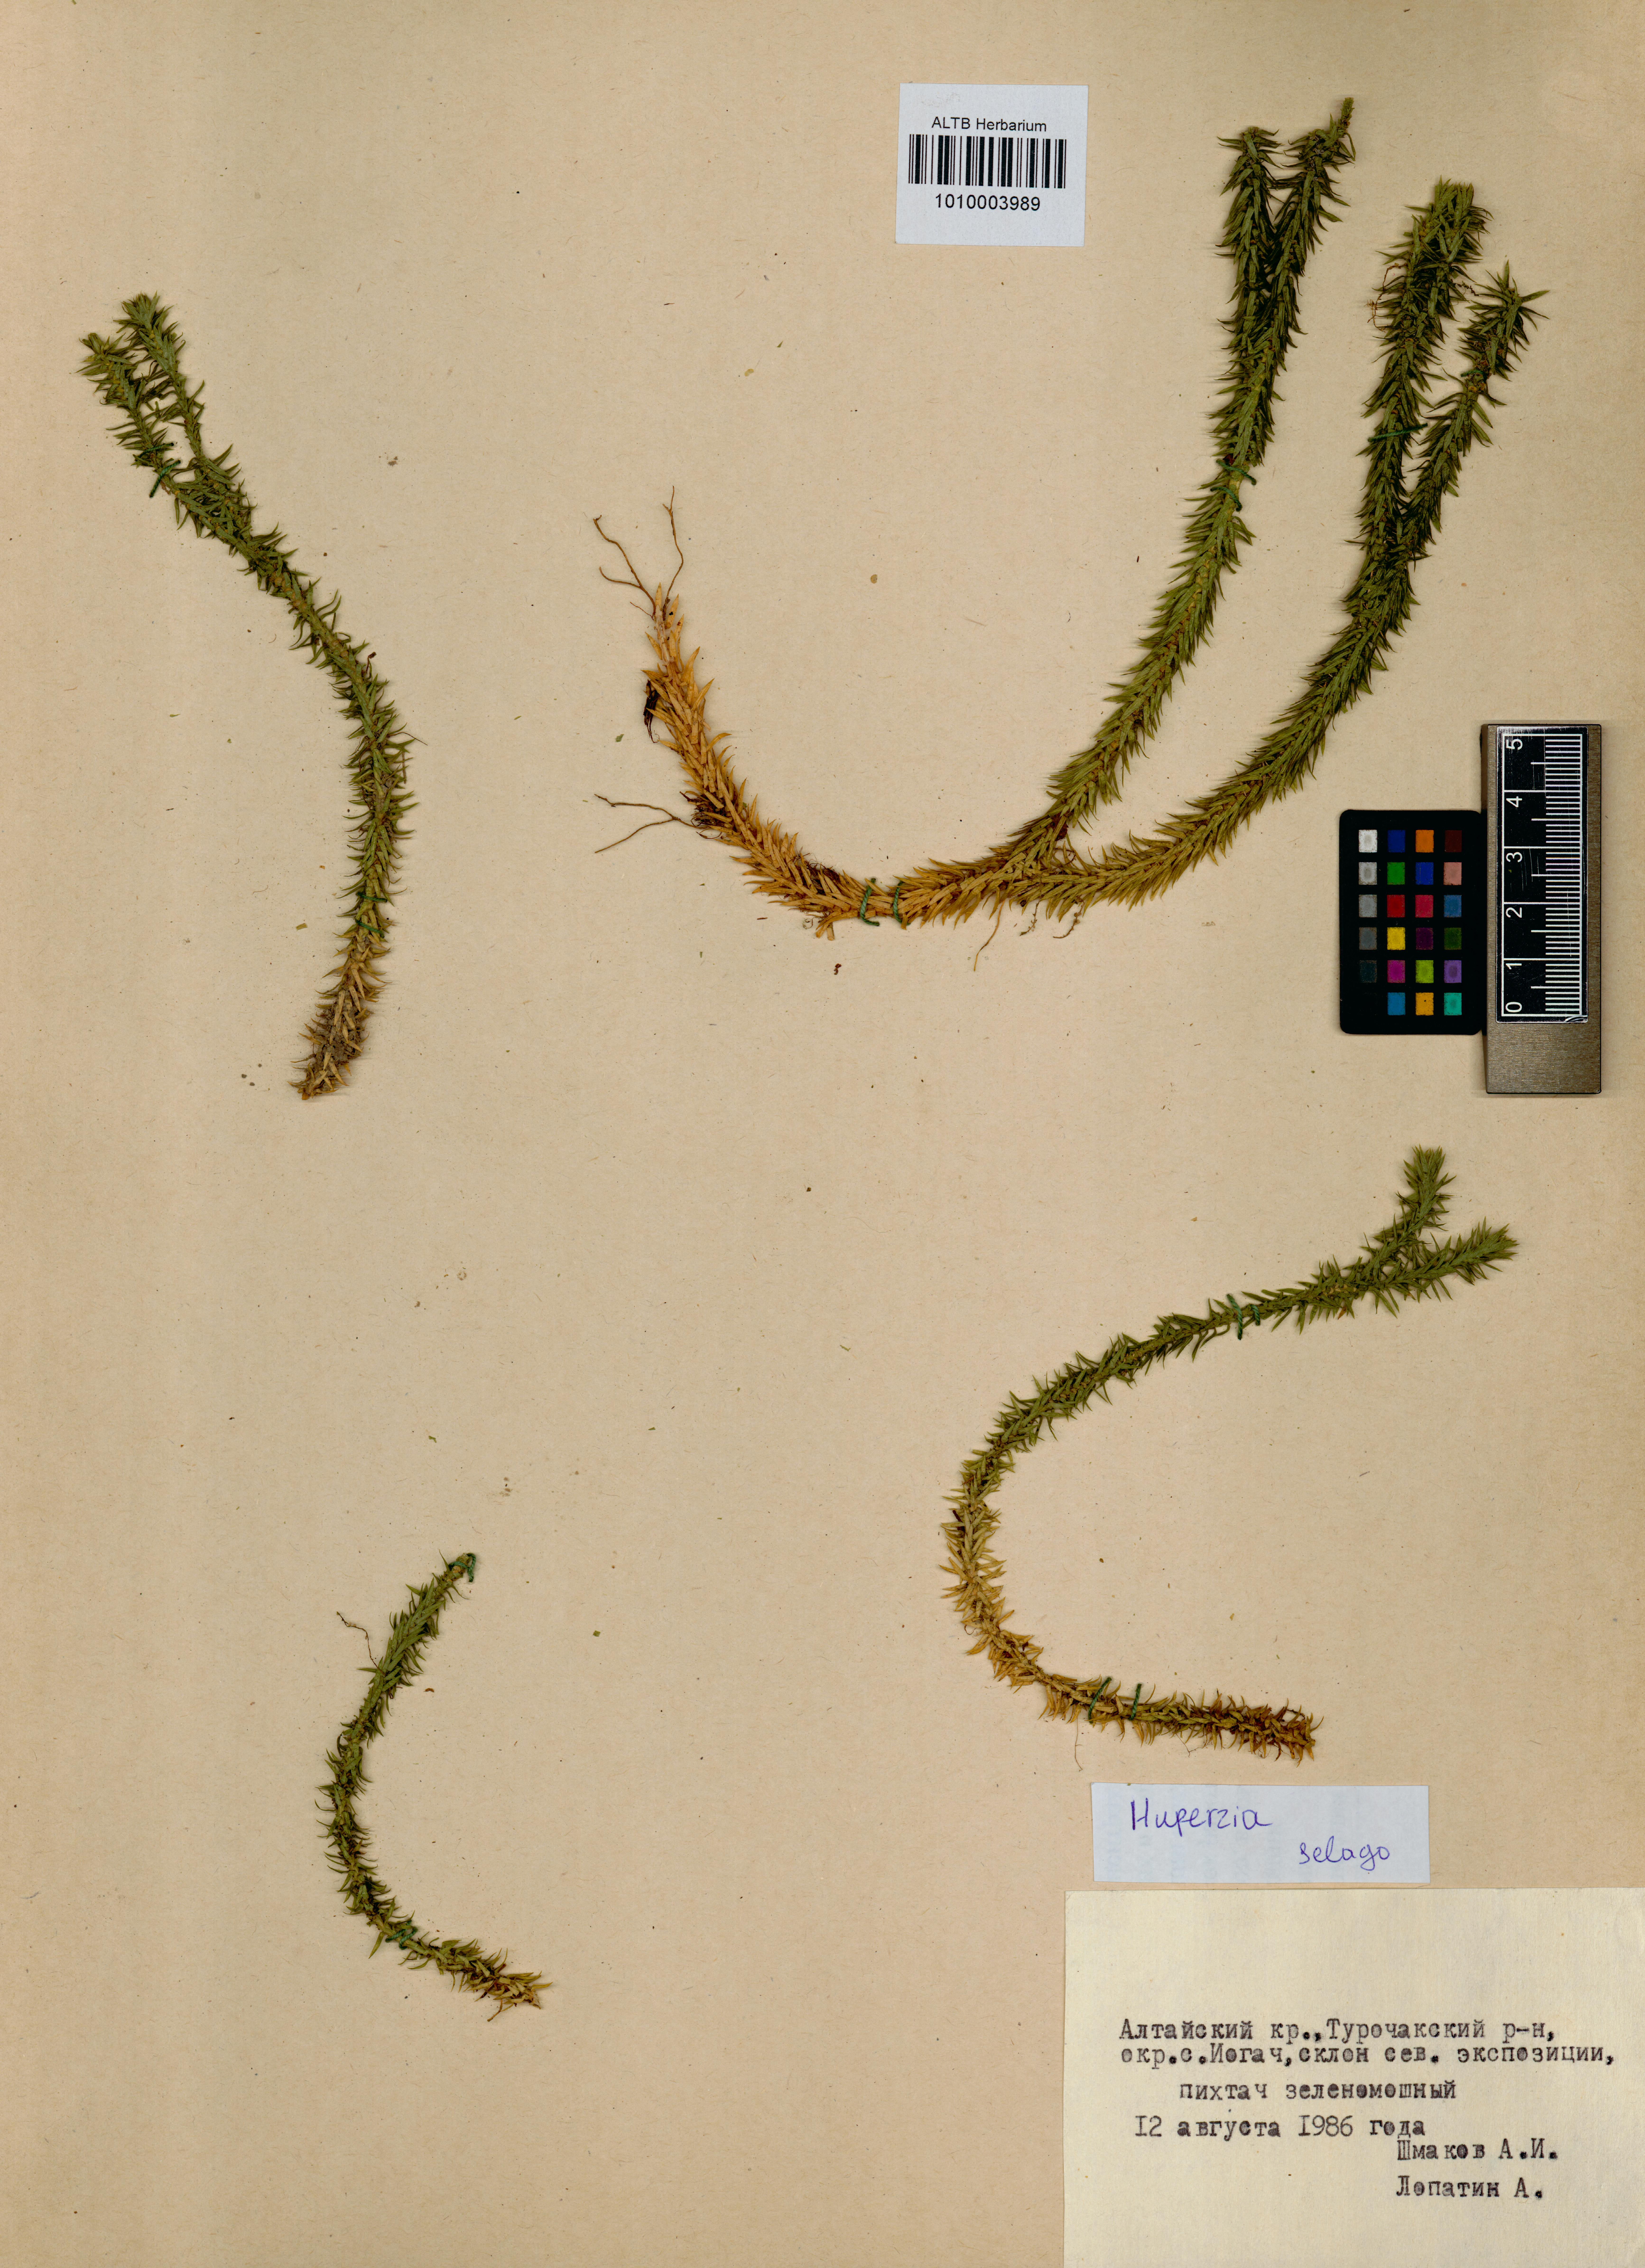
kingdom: Plantae
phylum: Tracheophyta
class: Lycopodiopsida
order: Lycopodiales
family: Lycopodiaceae
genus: Huperzia
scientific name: Huperzia selago
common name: Northern firmoss
